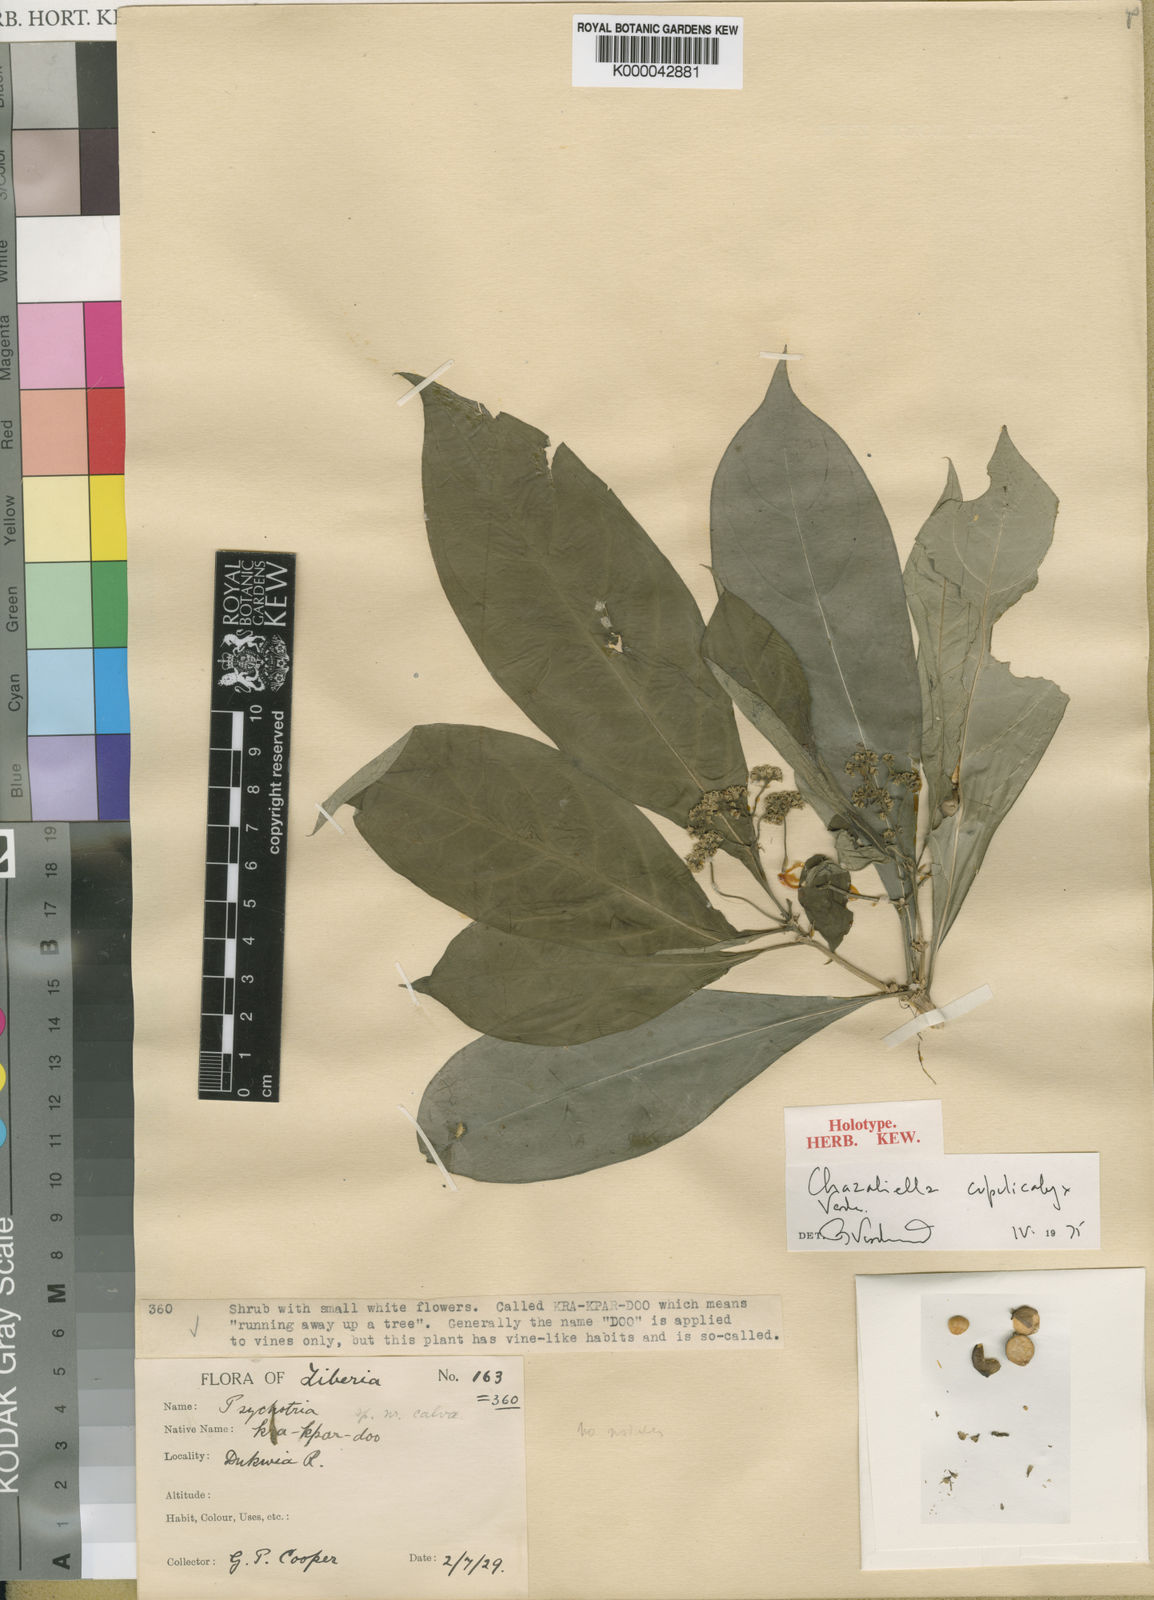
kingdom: Plantae
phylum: Tracheophyta
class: Magnoliopsida
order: Gentianales
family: Rubiaceae
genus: Eumachia
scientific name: Eumachia cupulicalyx
